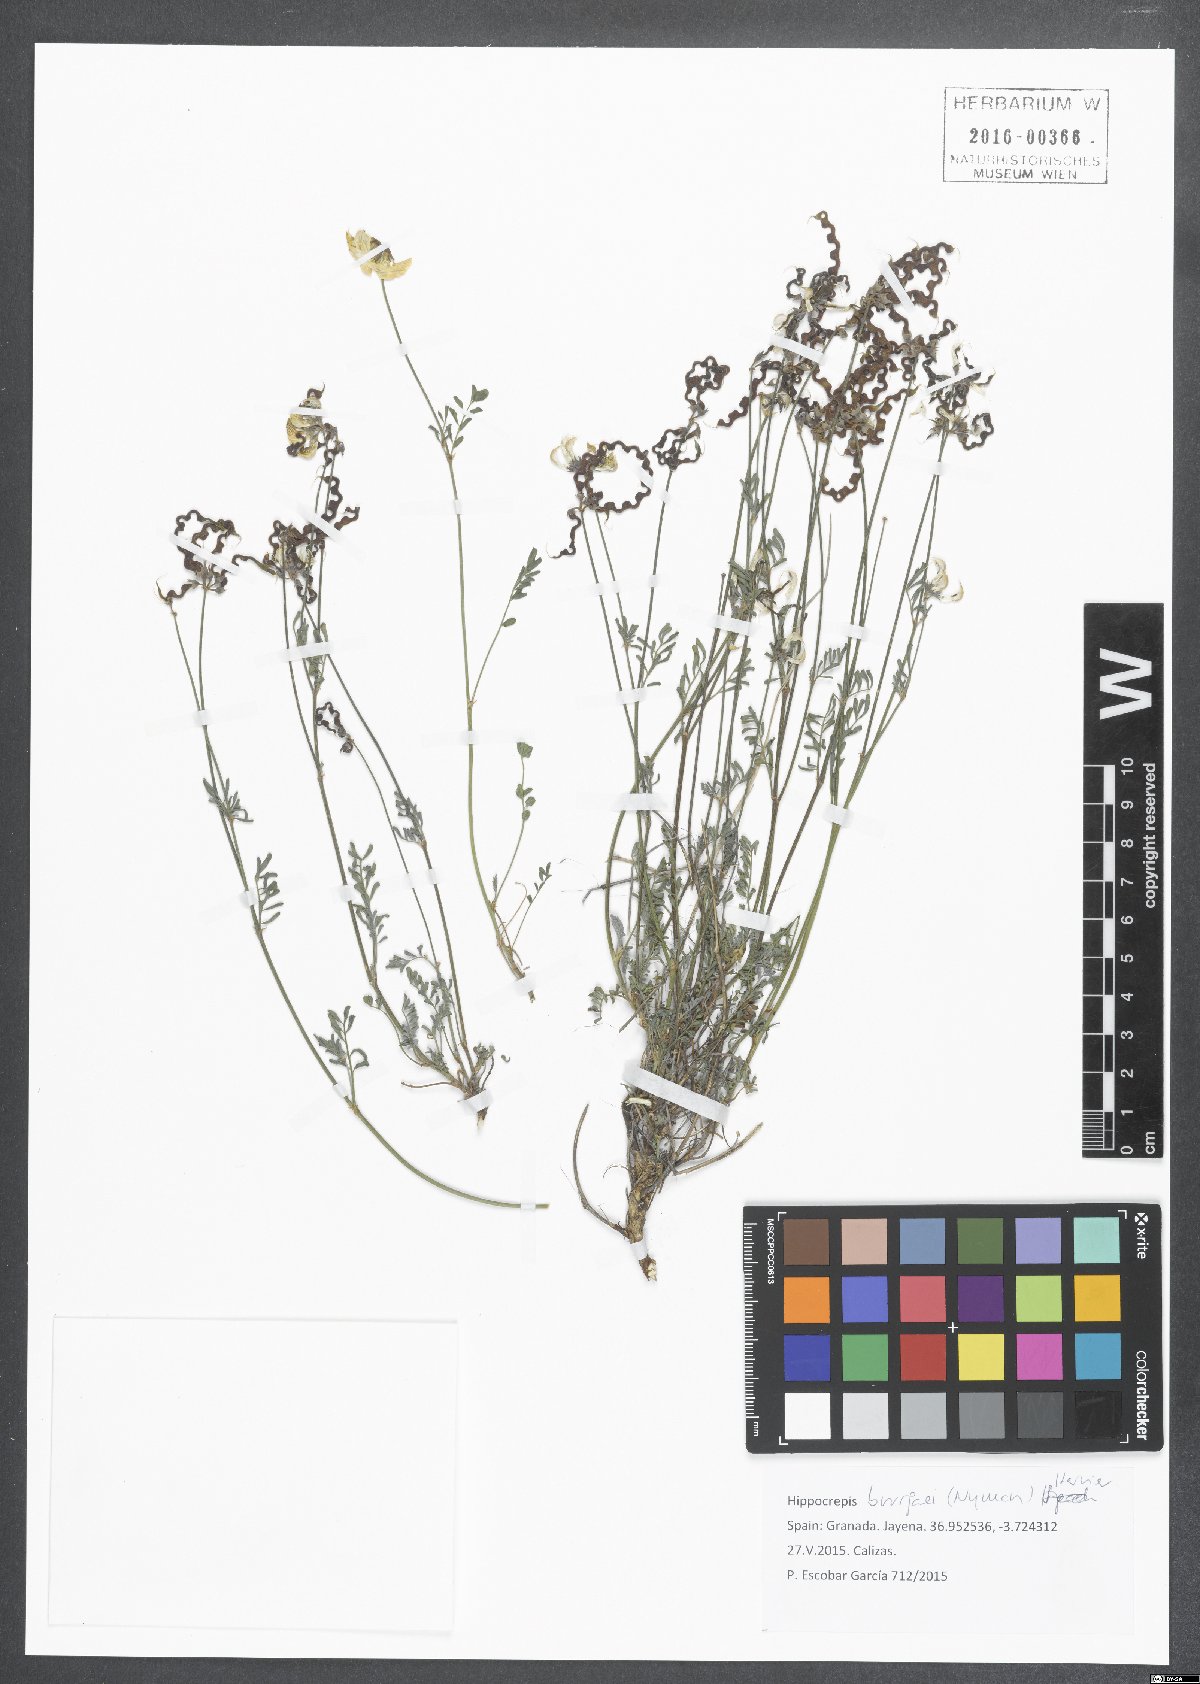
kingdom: Plantae
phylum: Tracheophyta
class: Magnoliopsida
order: Fabales
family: Fabaceae
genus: Hippocrepis
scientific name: Hippocrepis bourgaei
